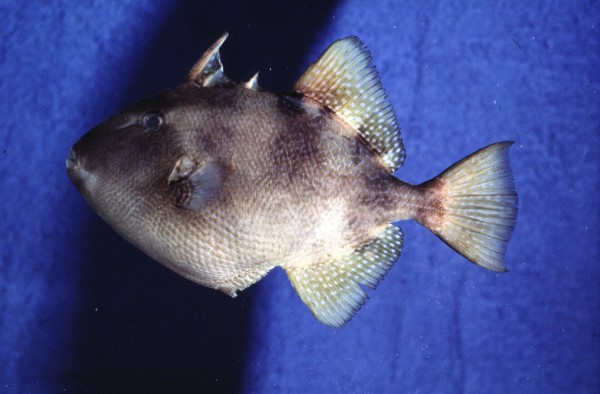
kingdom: Animalia
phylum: Chordata
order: Tetraodontiformes
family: Balistidae
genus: Balistes
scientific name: Balistes capriscus
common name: Grey triggerfish
